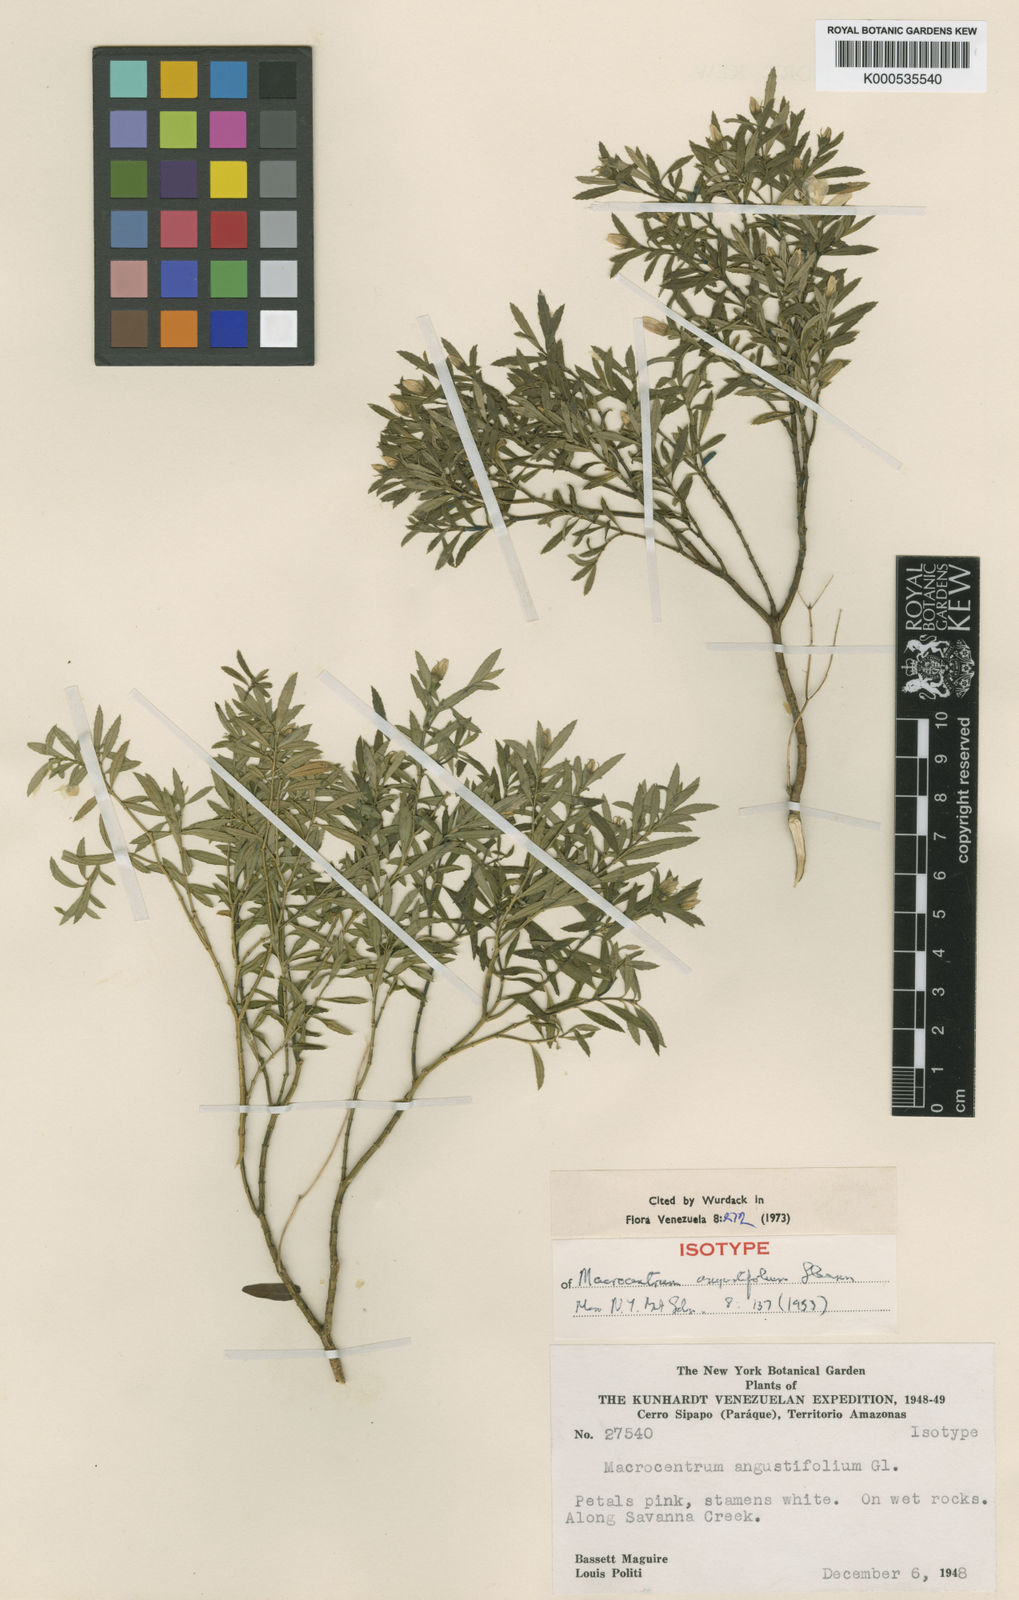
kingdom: Plantae
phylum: Tracheophyta
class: Magnoliopsida
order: Myrtales
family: Melastomataceae
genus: Macrocentrum
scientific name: Macrocentrum angustifolium
